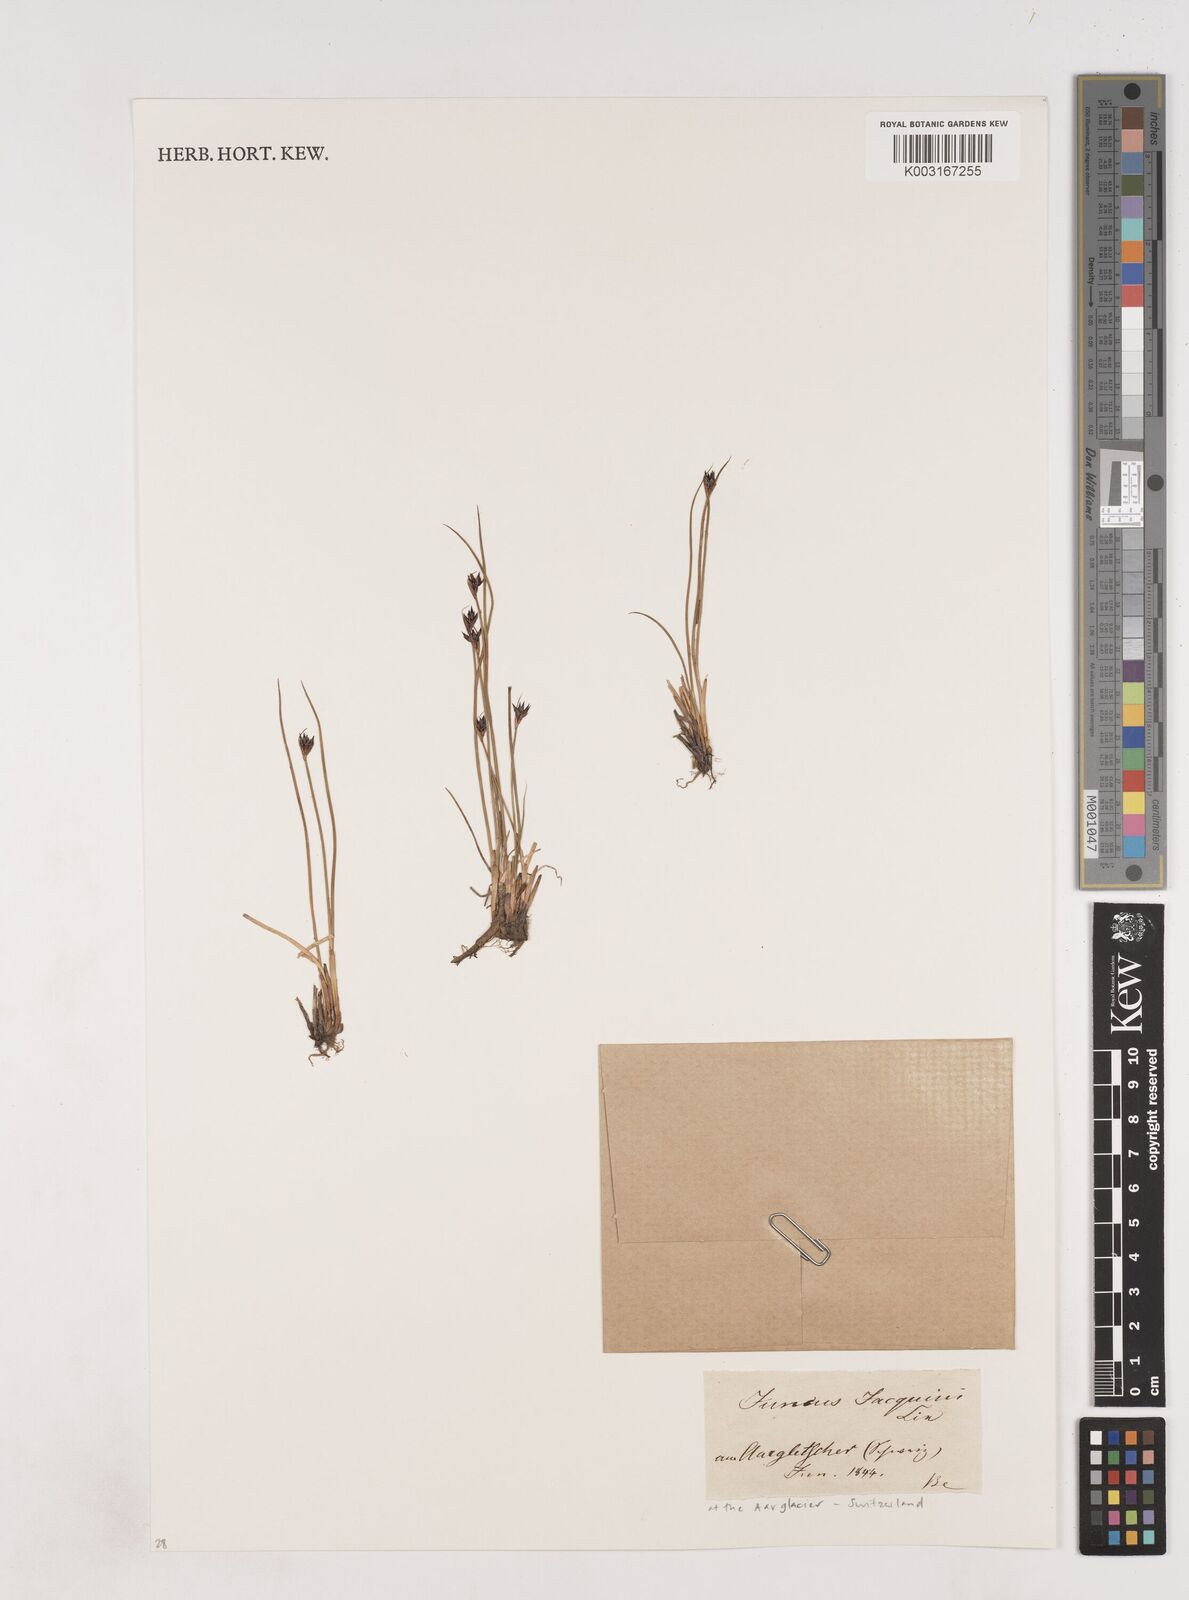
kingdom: Plantae
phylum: Tracheophyta
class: Liliopsida
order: Poales
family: Juncaceae
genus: Juncus
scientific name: Juncus jacquinii
